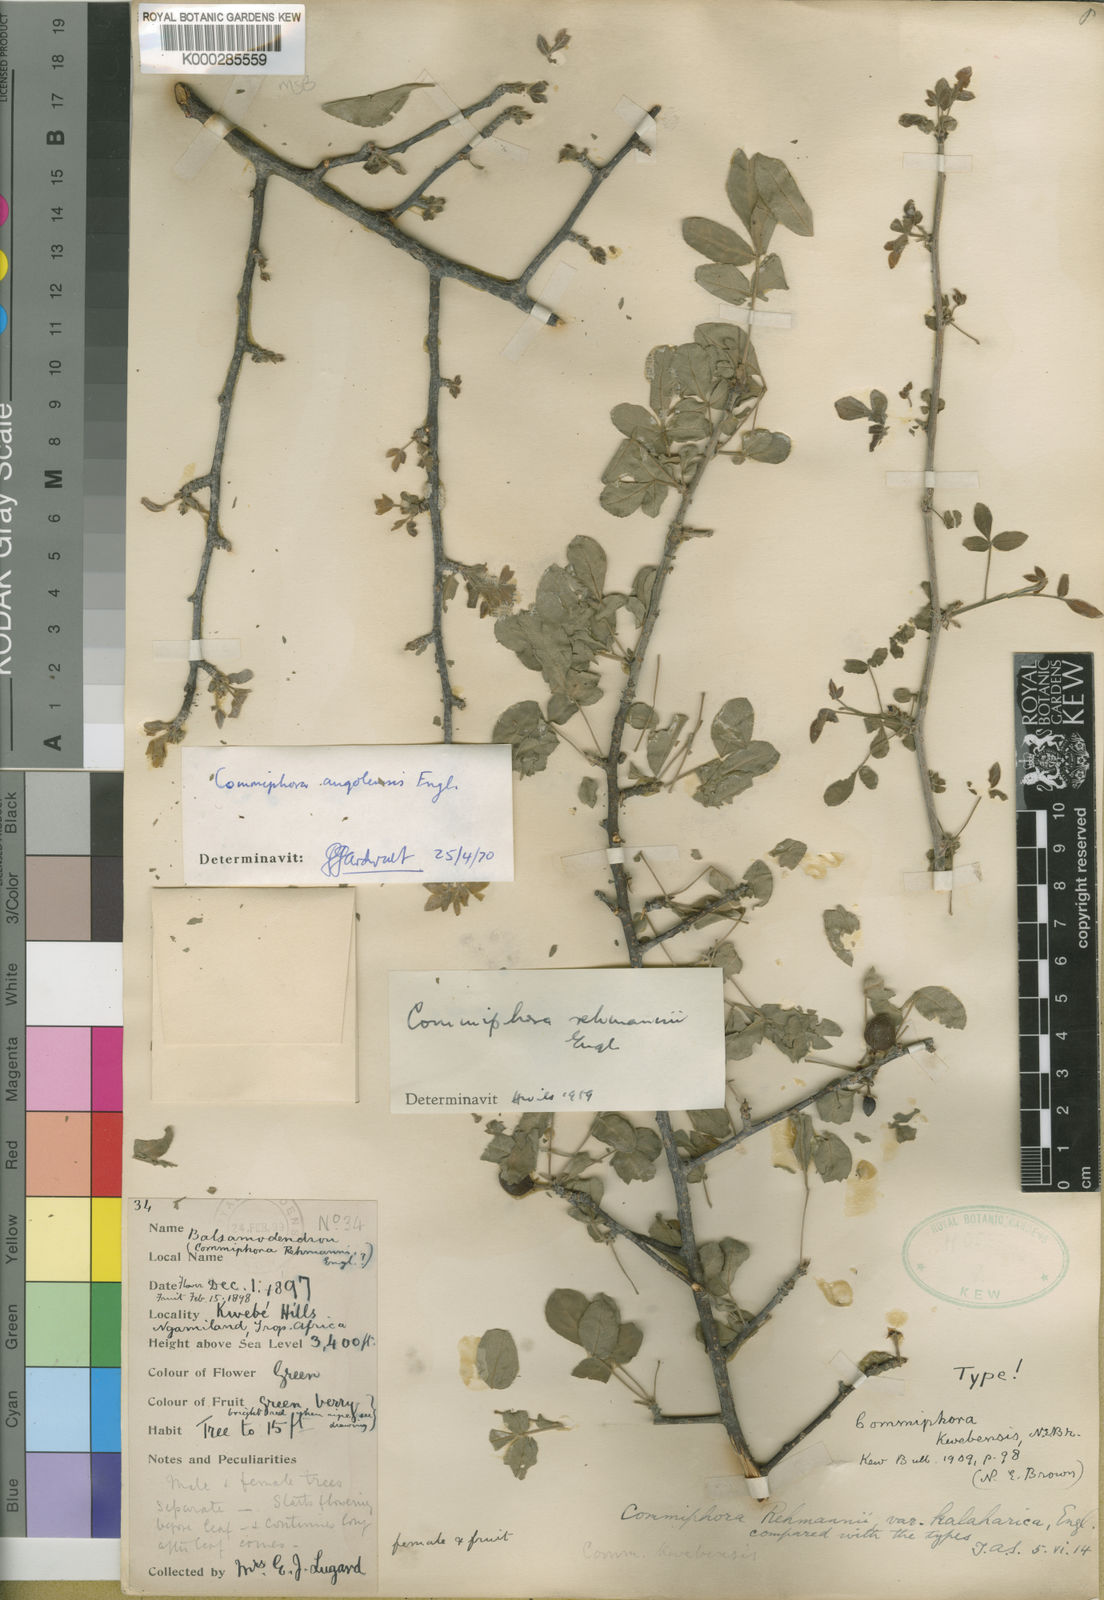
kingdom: Plantae
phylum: Tracheophyta
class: Magnoliopsida
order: Sapindales
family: Burseraceae
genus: Commiphora
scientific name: Commiphora angolensis
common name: Poison-grub
